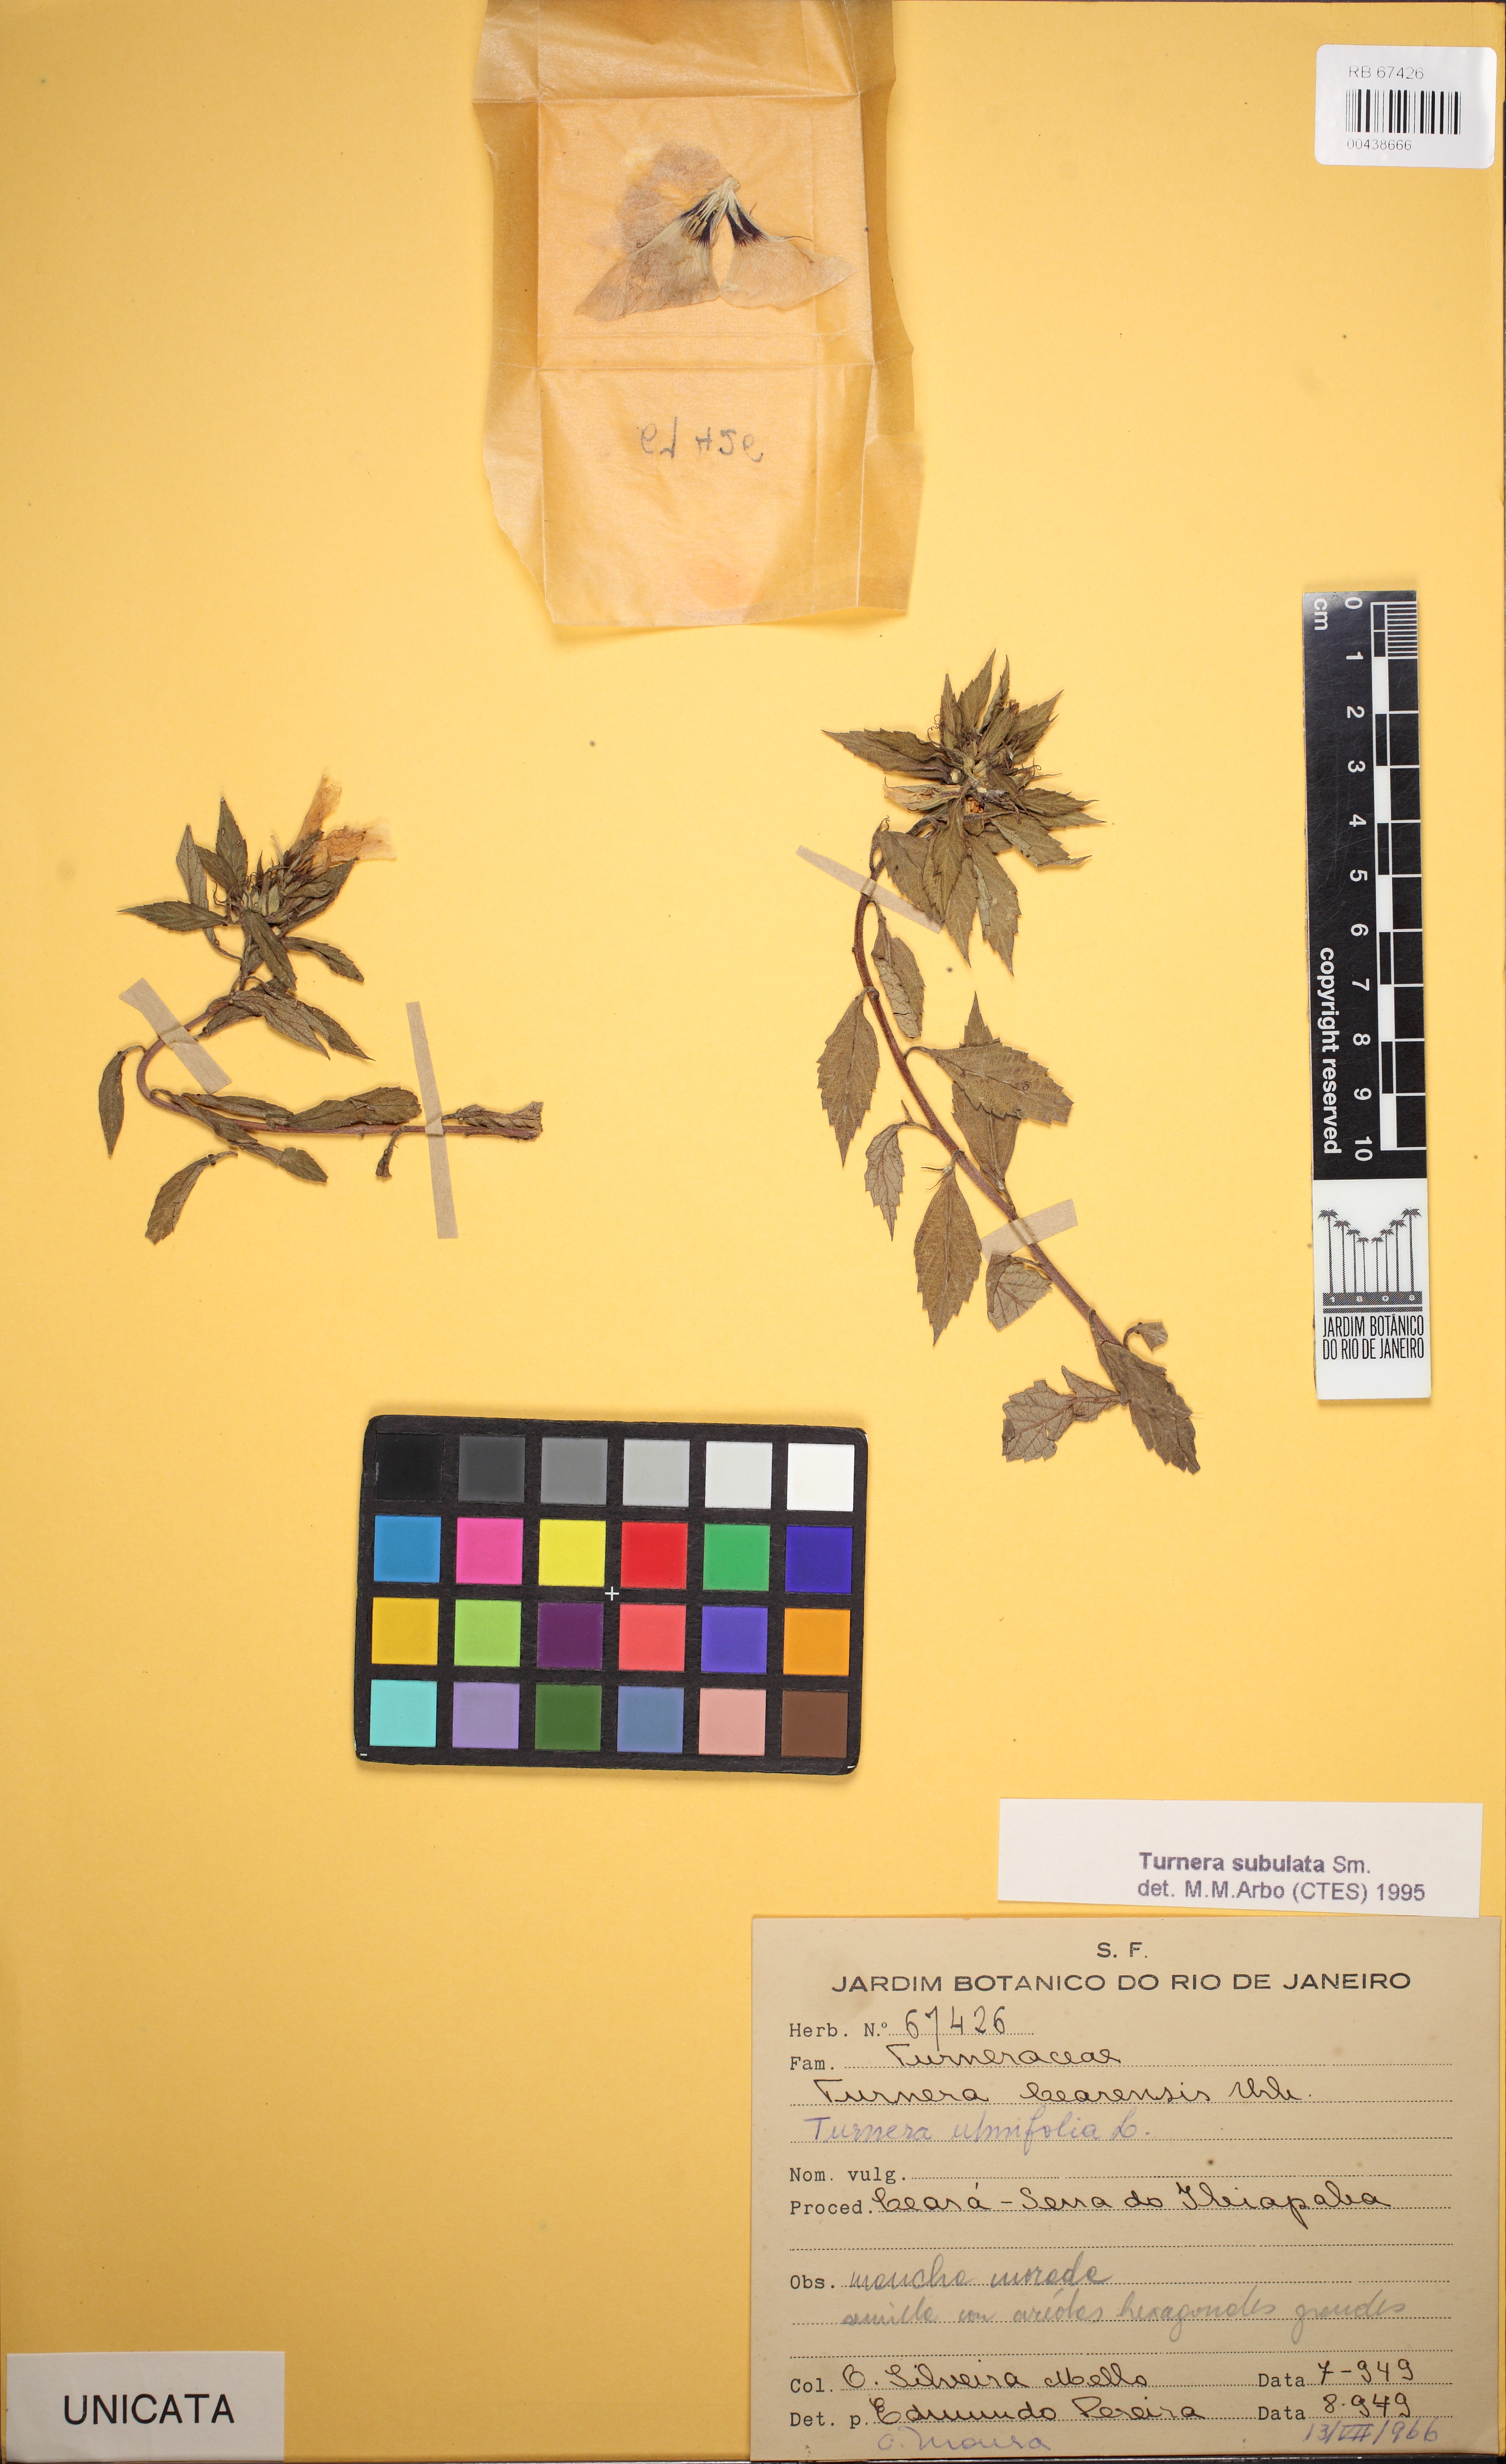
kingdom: Plantae
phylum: Tracheophyta
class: Magnoliopsida
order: Malpighiales
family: Turneraceae
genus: Turnera
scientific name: Turnera subulata
